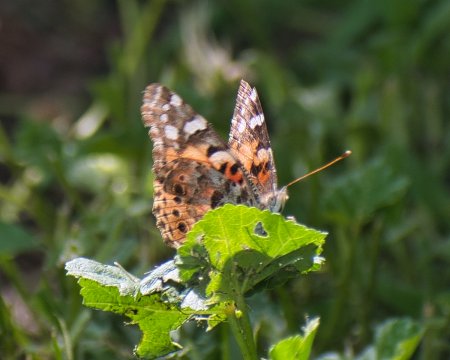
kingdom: Animalia
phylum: Arthropoda
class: Insecta
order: Lepidoptera
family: Nymphalidae
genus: Vanessa
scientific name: Vanessa cardui
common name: Painted Lady
